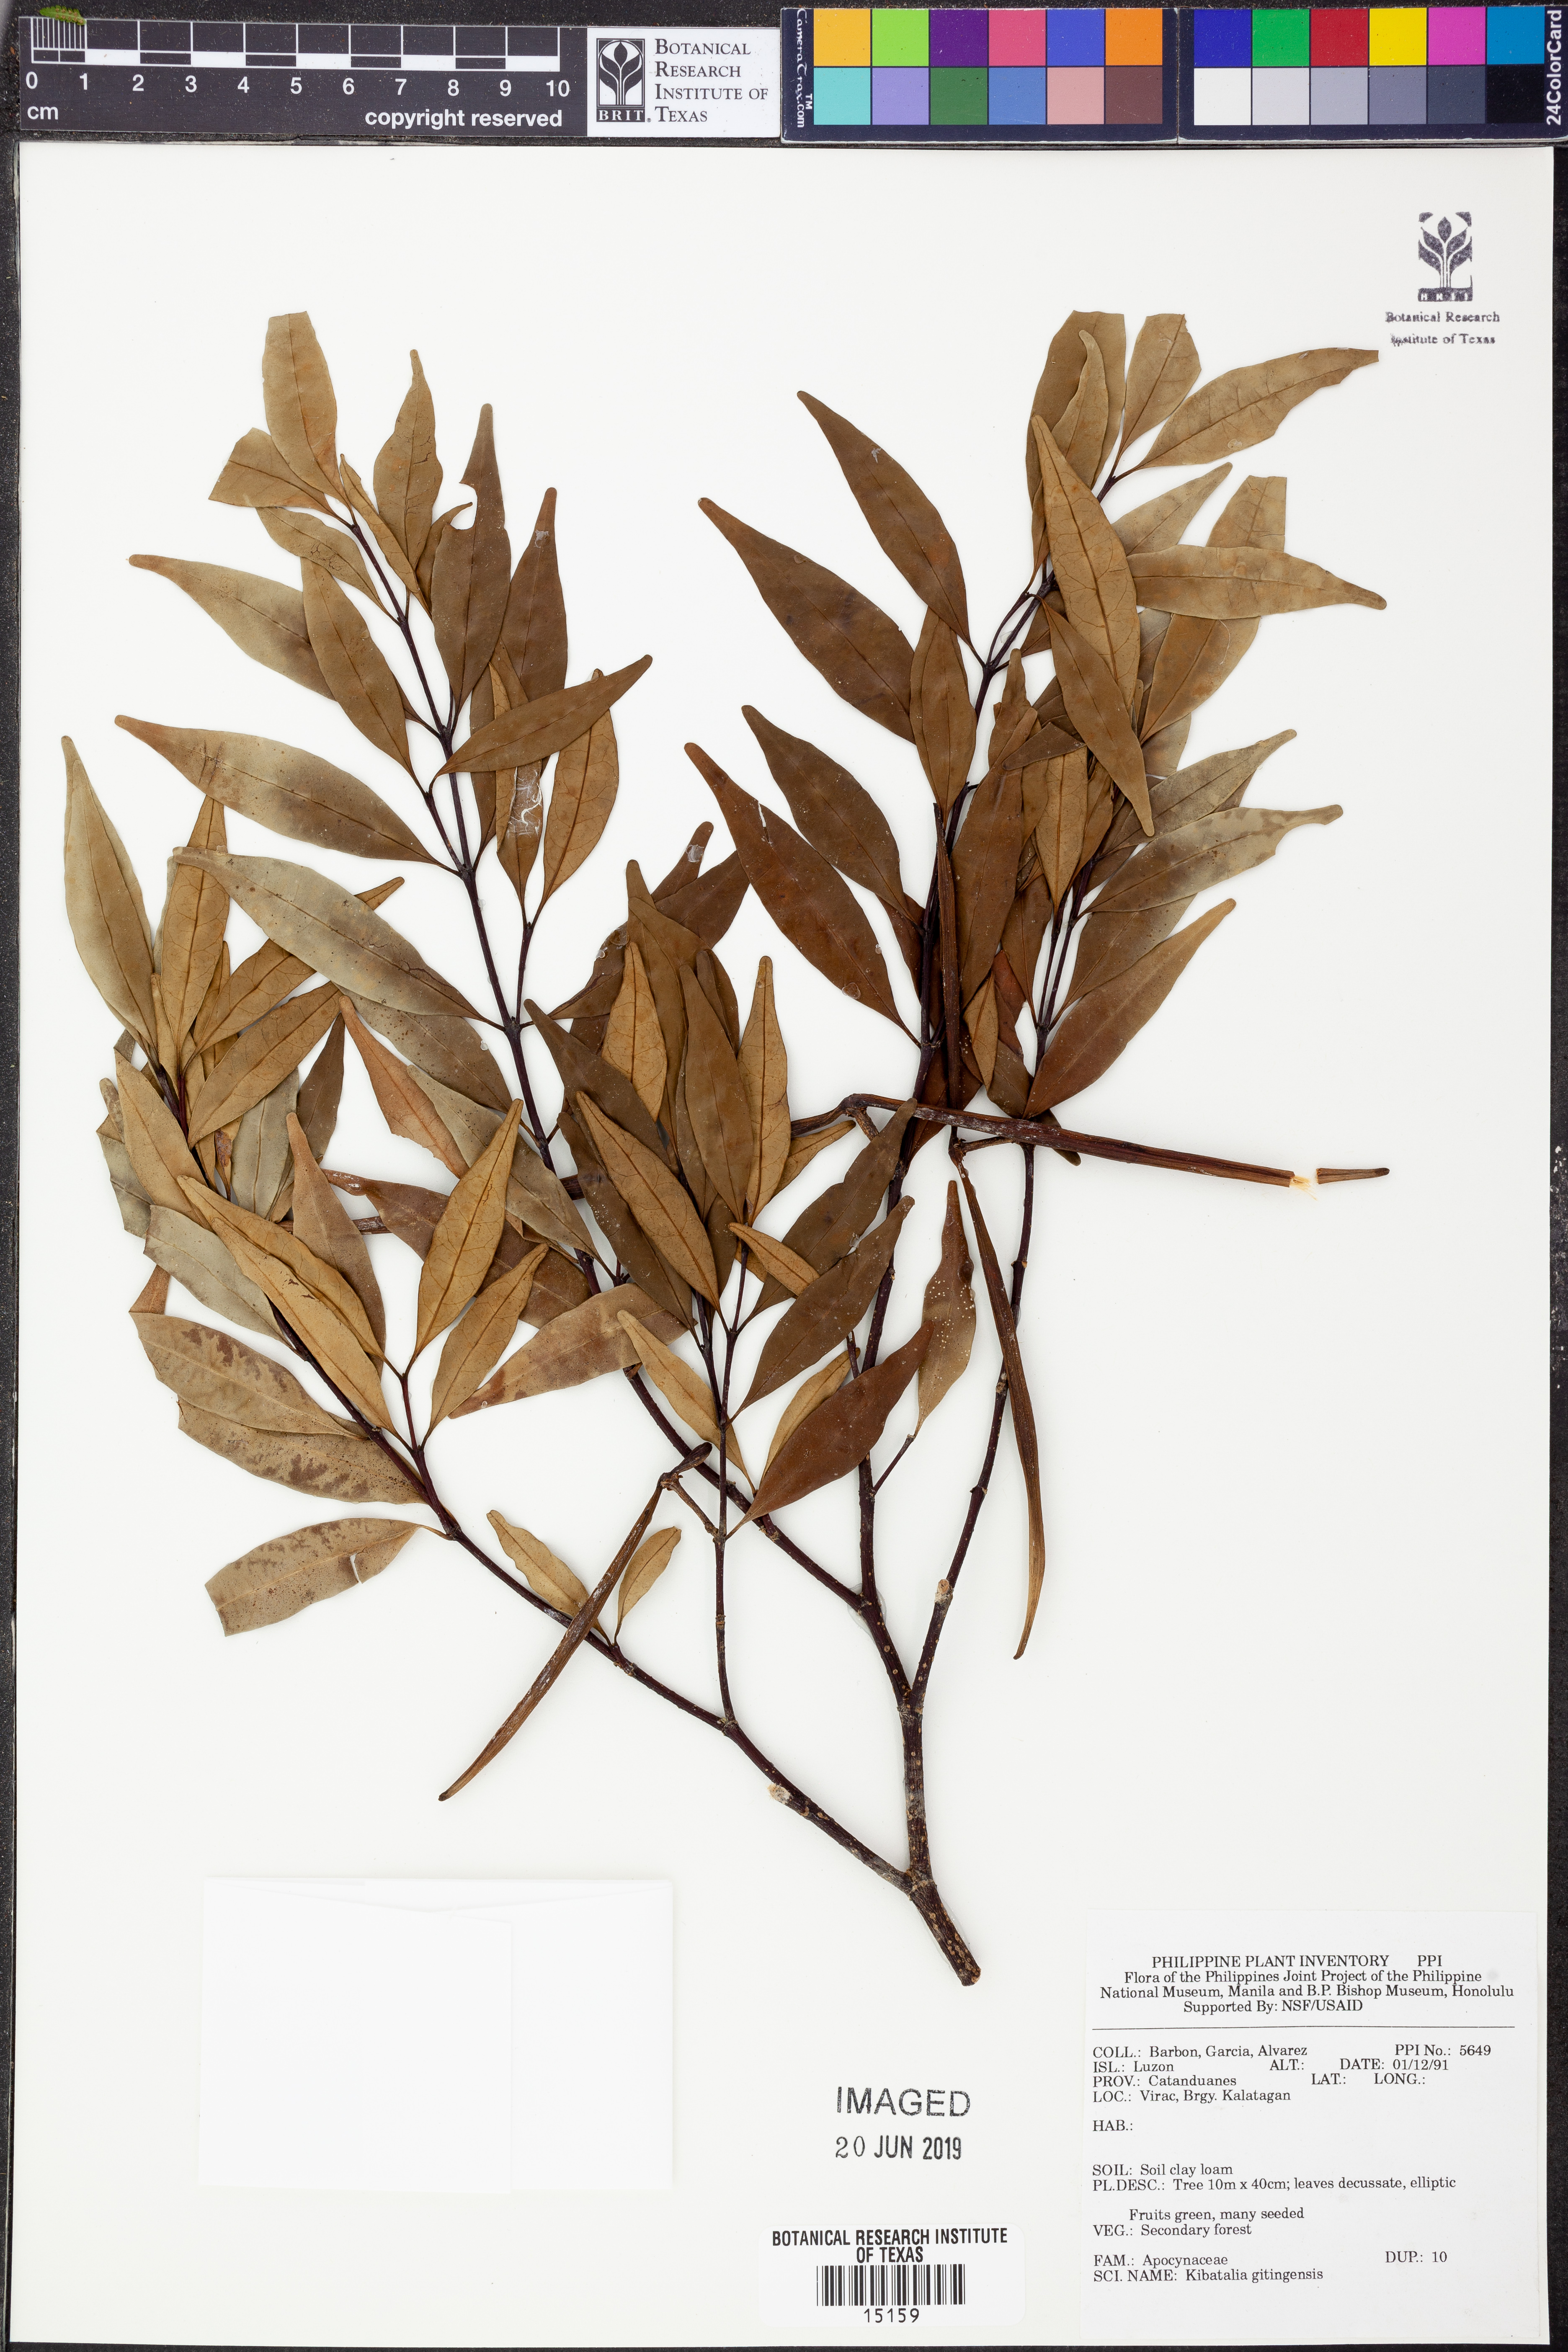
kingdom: Plantae
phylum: Tracheophyta
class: Magnoliopsida
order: Gentianales
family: Apocynaceae
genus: Kibatalia
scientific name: Kibatalia gitingensis
